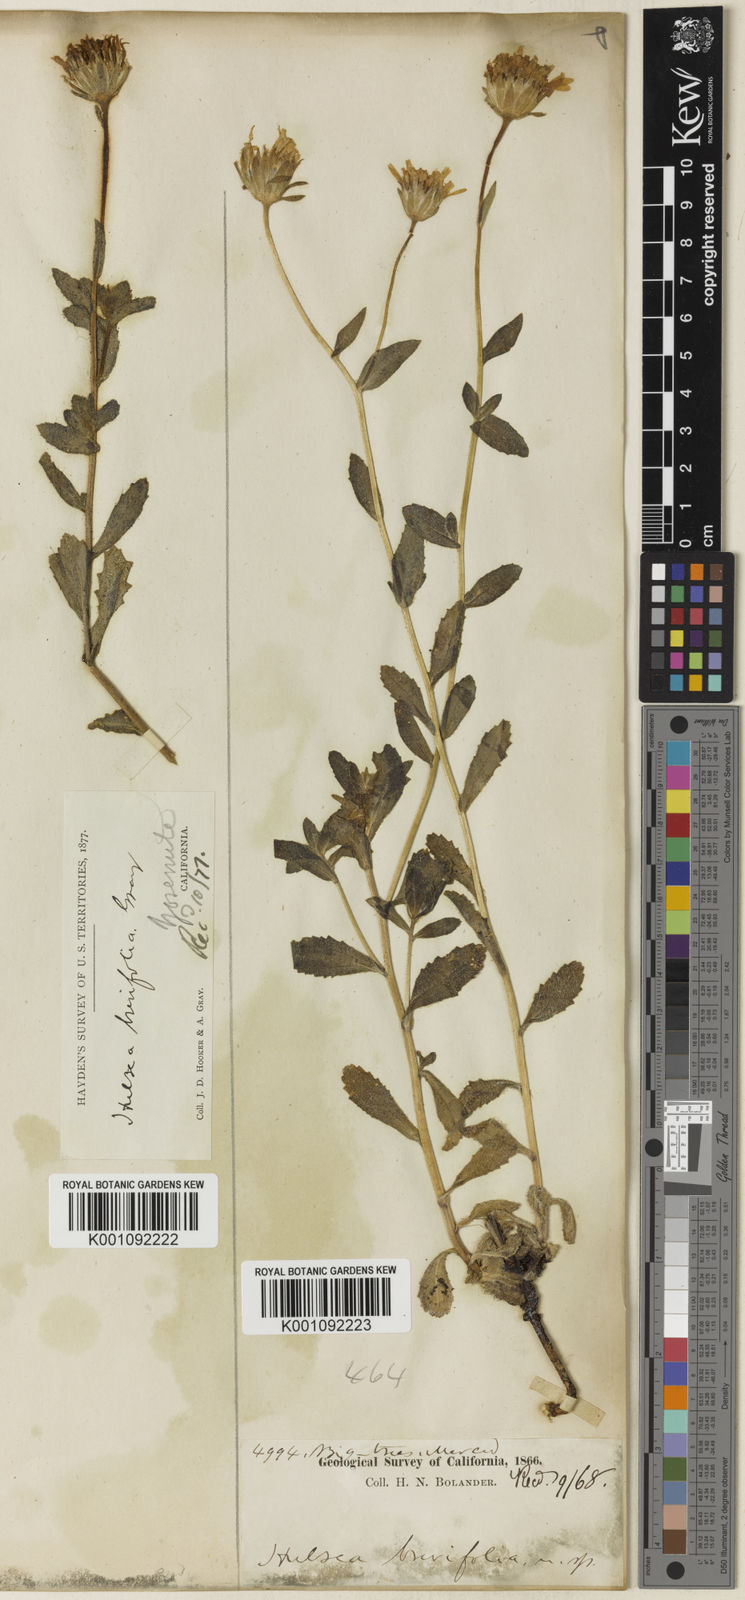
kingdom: Plantae
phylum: Tracheophyta
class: Magnoliopsida
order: Asterales
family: Asteraceae
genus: Hulsea
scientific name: Hulsea brevifolia
